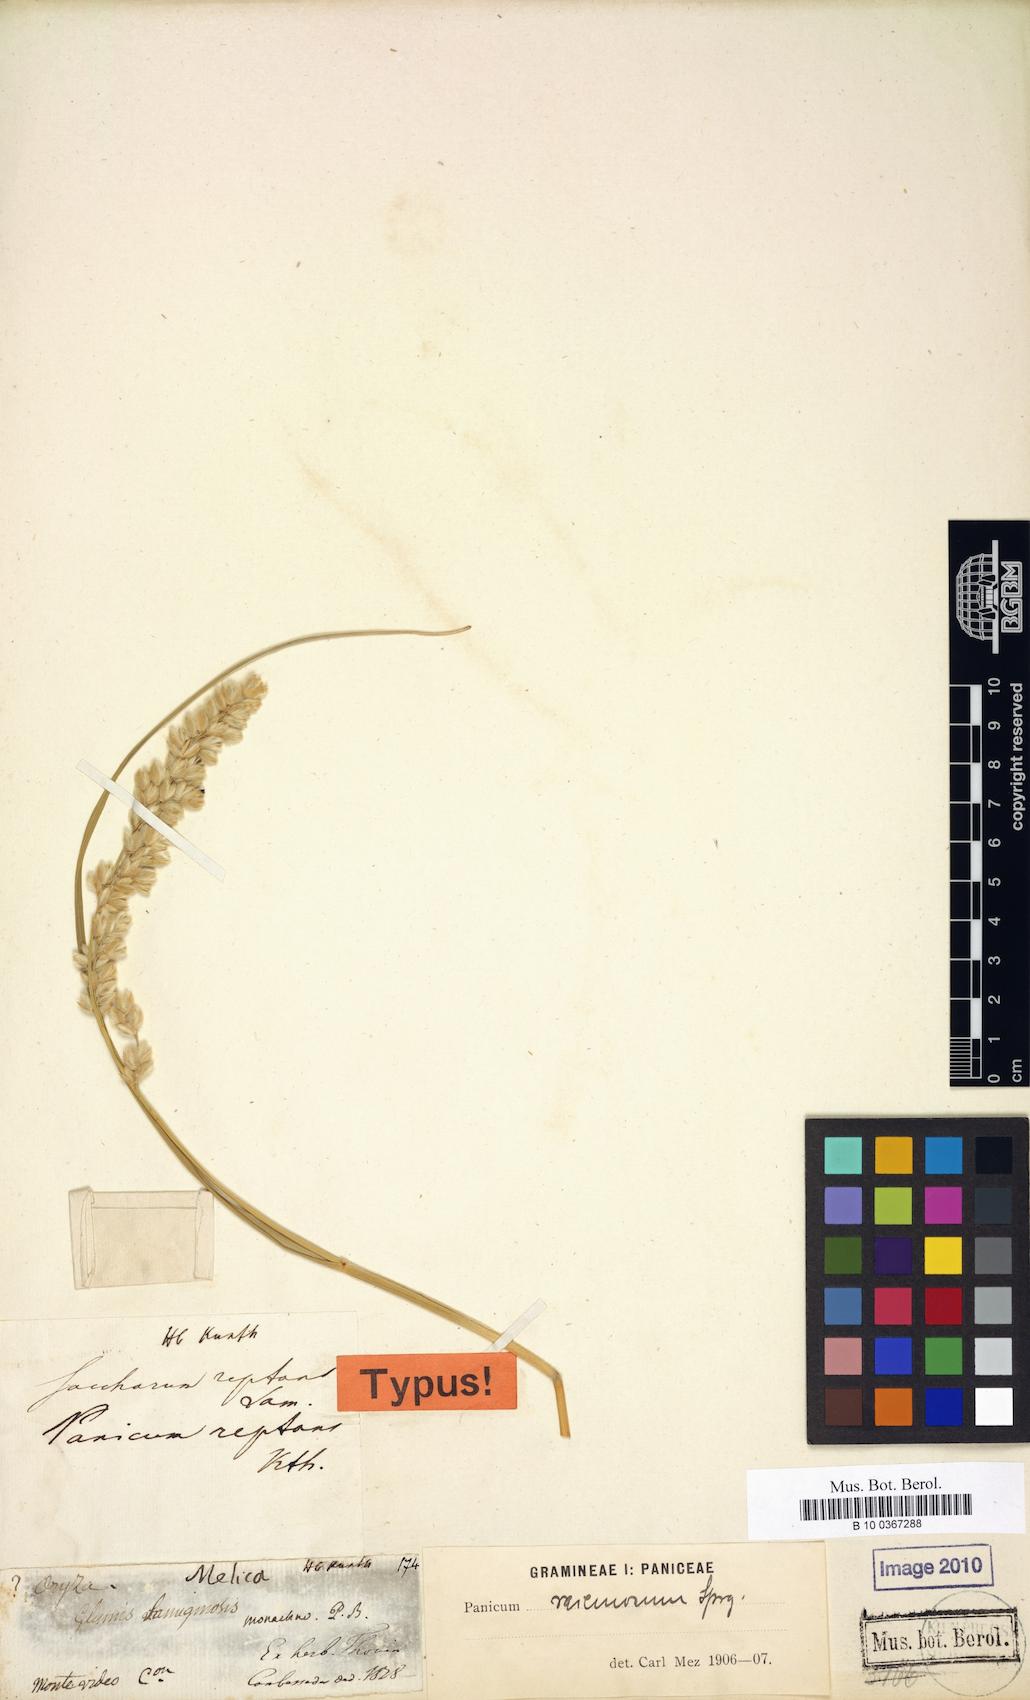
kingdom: Plantae
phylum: Tracheophyta
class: Liliopsida
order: Poales
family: Poaceae
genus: Panicum
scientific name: Panicum racemosum
